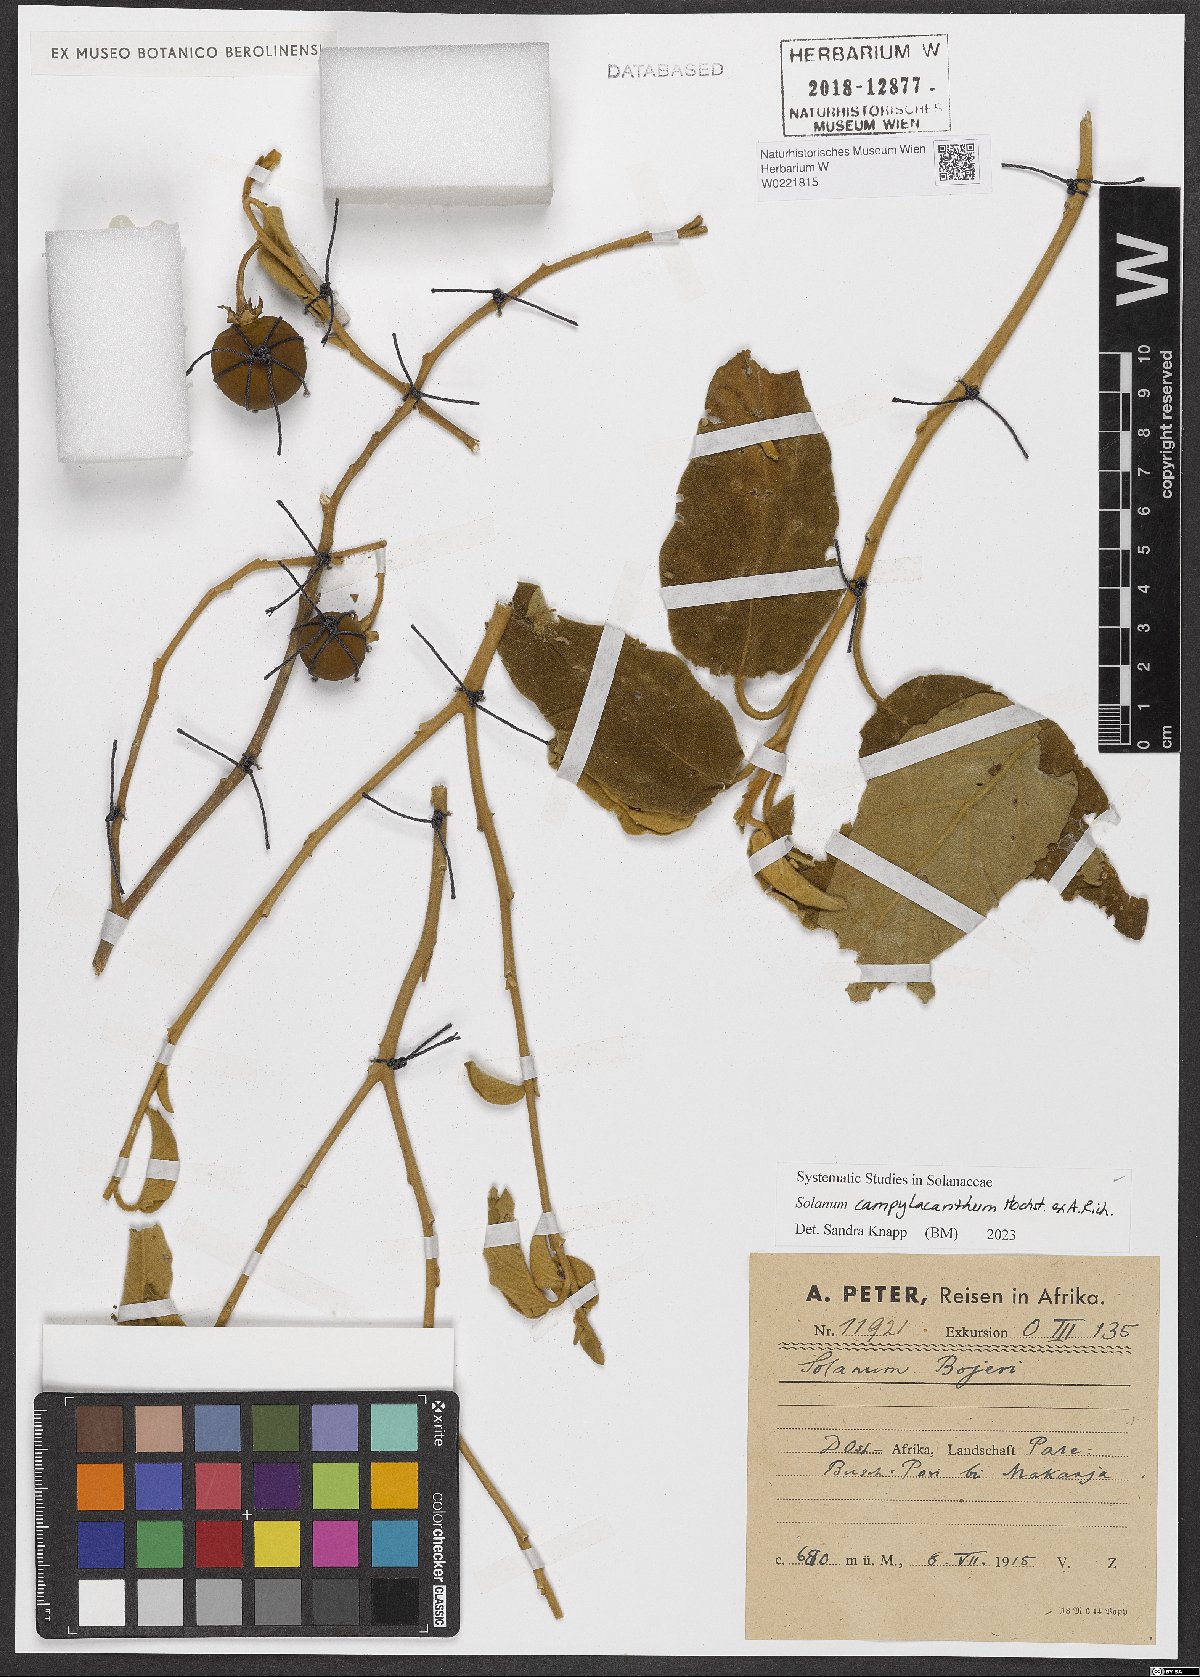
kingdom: Plantae
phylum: Tracheophyta
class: Magnoliopsida
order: Solanales
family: Solanaceae
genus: Solanum
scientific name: Solanum campylacanthum
